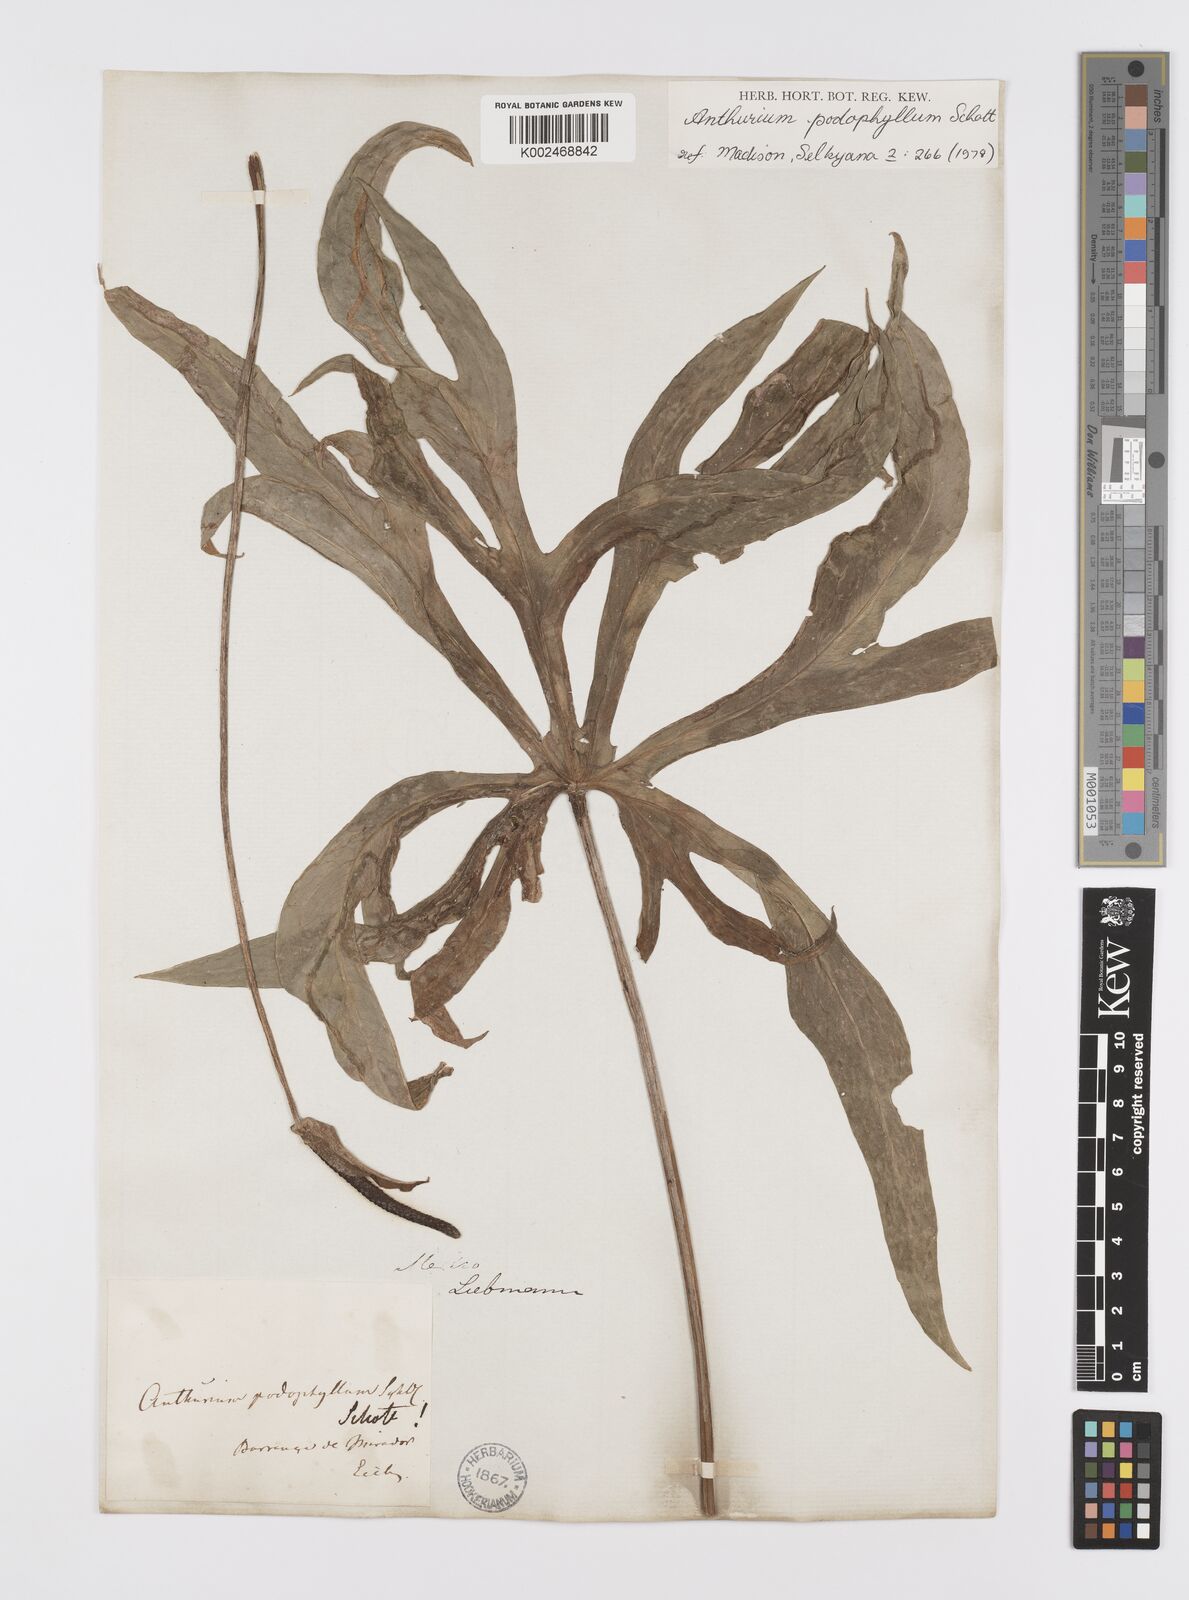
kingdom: Plantae
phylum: Tracheophyta
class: Liliopsida
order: Alismatales
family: Araceae
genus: Anthurium
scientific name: Anthurium podophyllum
